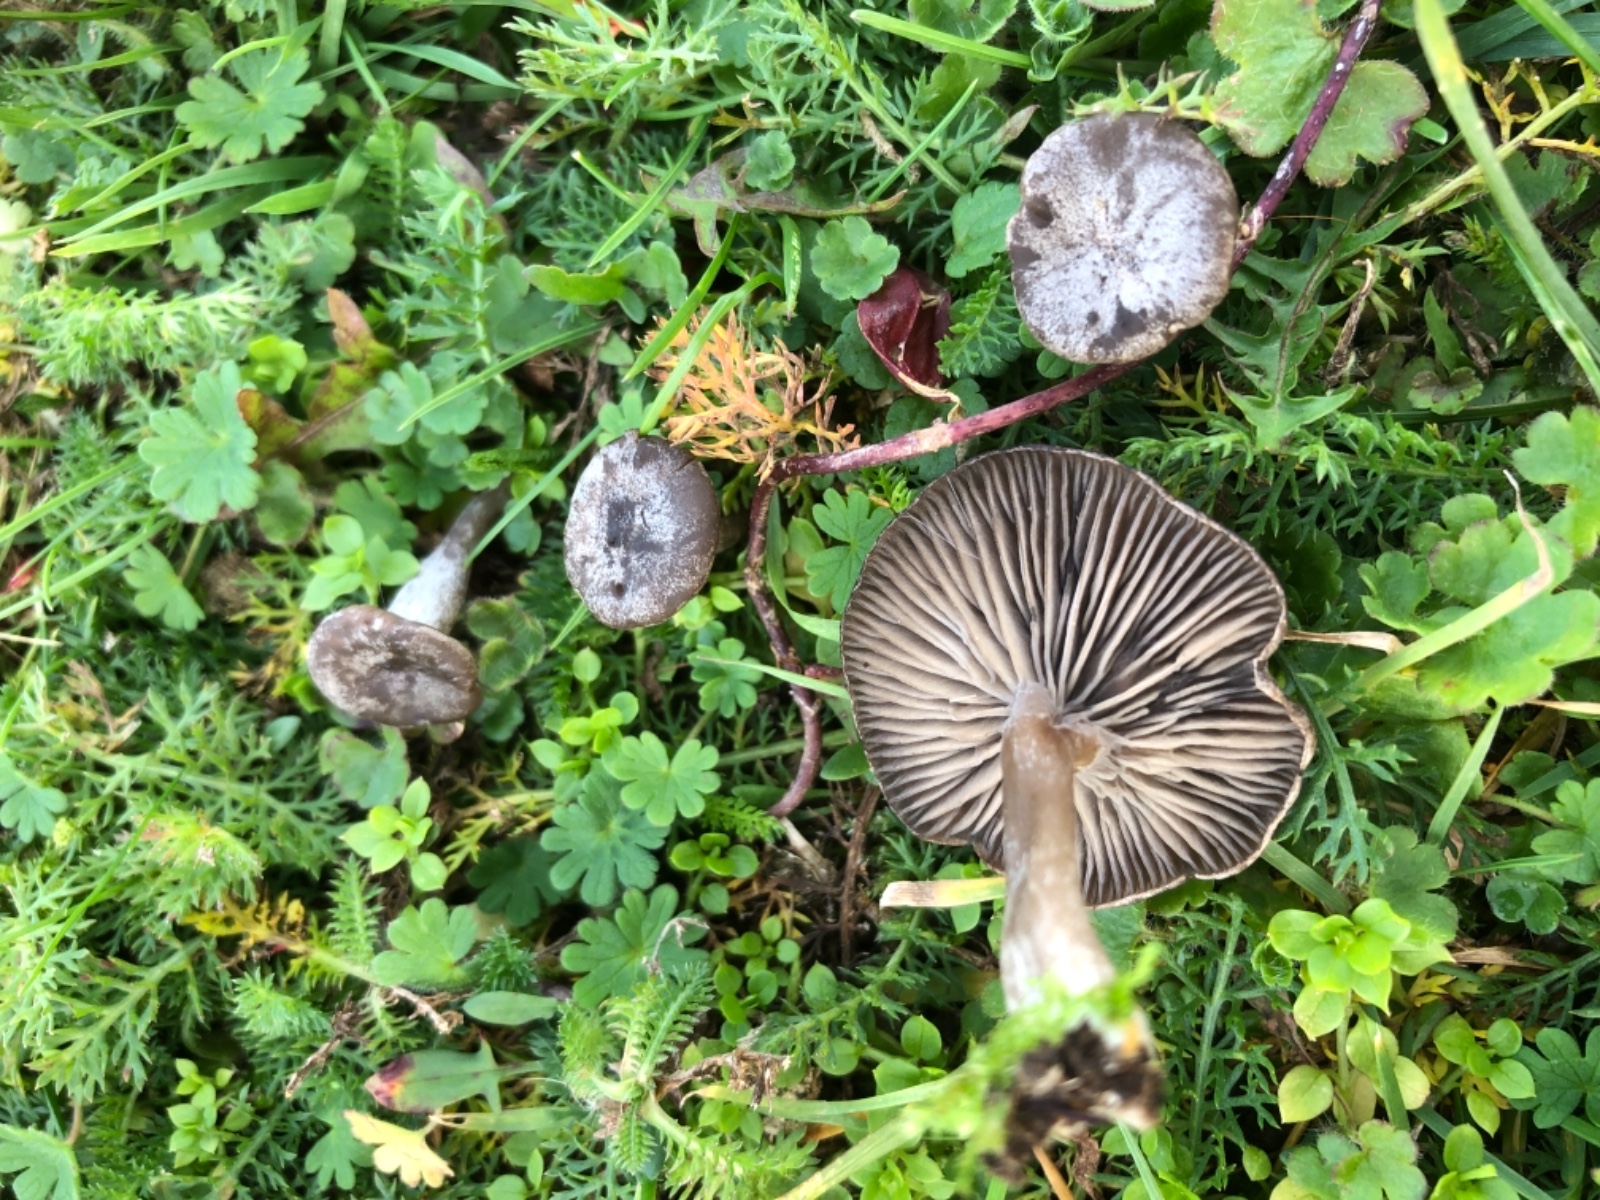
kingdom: Fungi
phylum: Basidiomycota
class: Agaricomycetes
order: Agaricales
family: Entolomataceae
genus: Rhodocybe
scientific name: Rhodocybe
